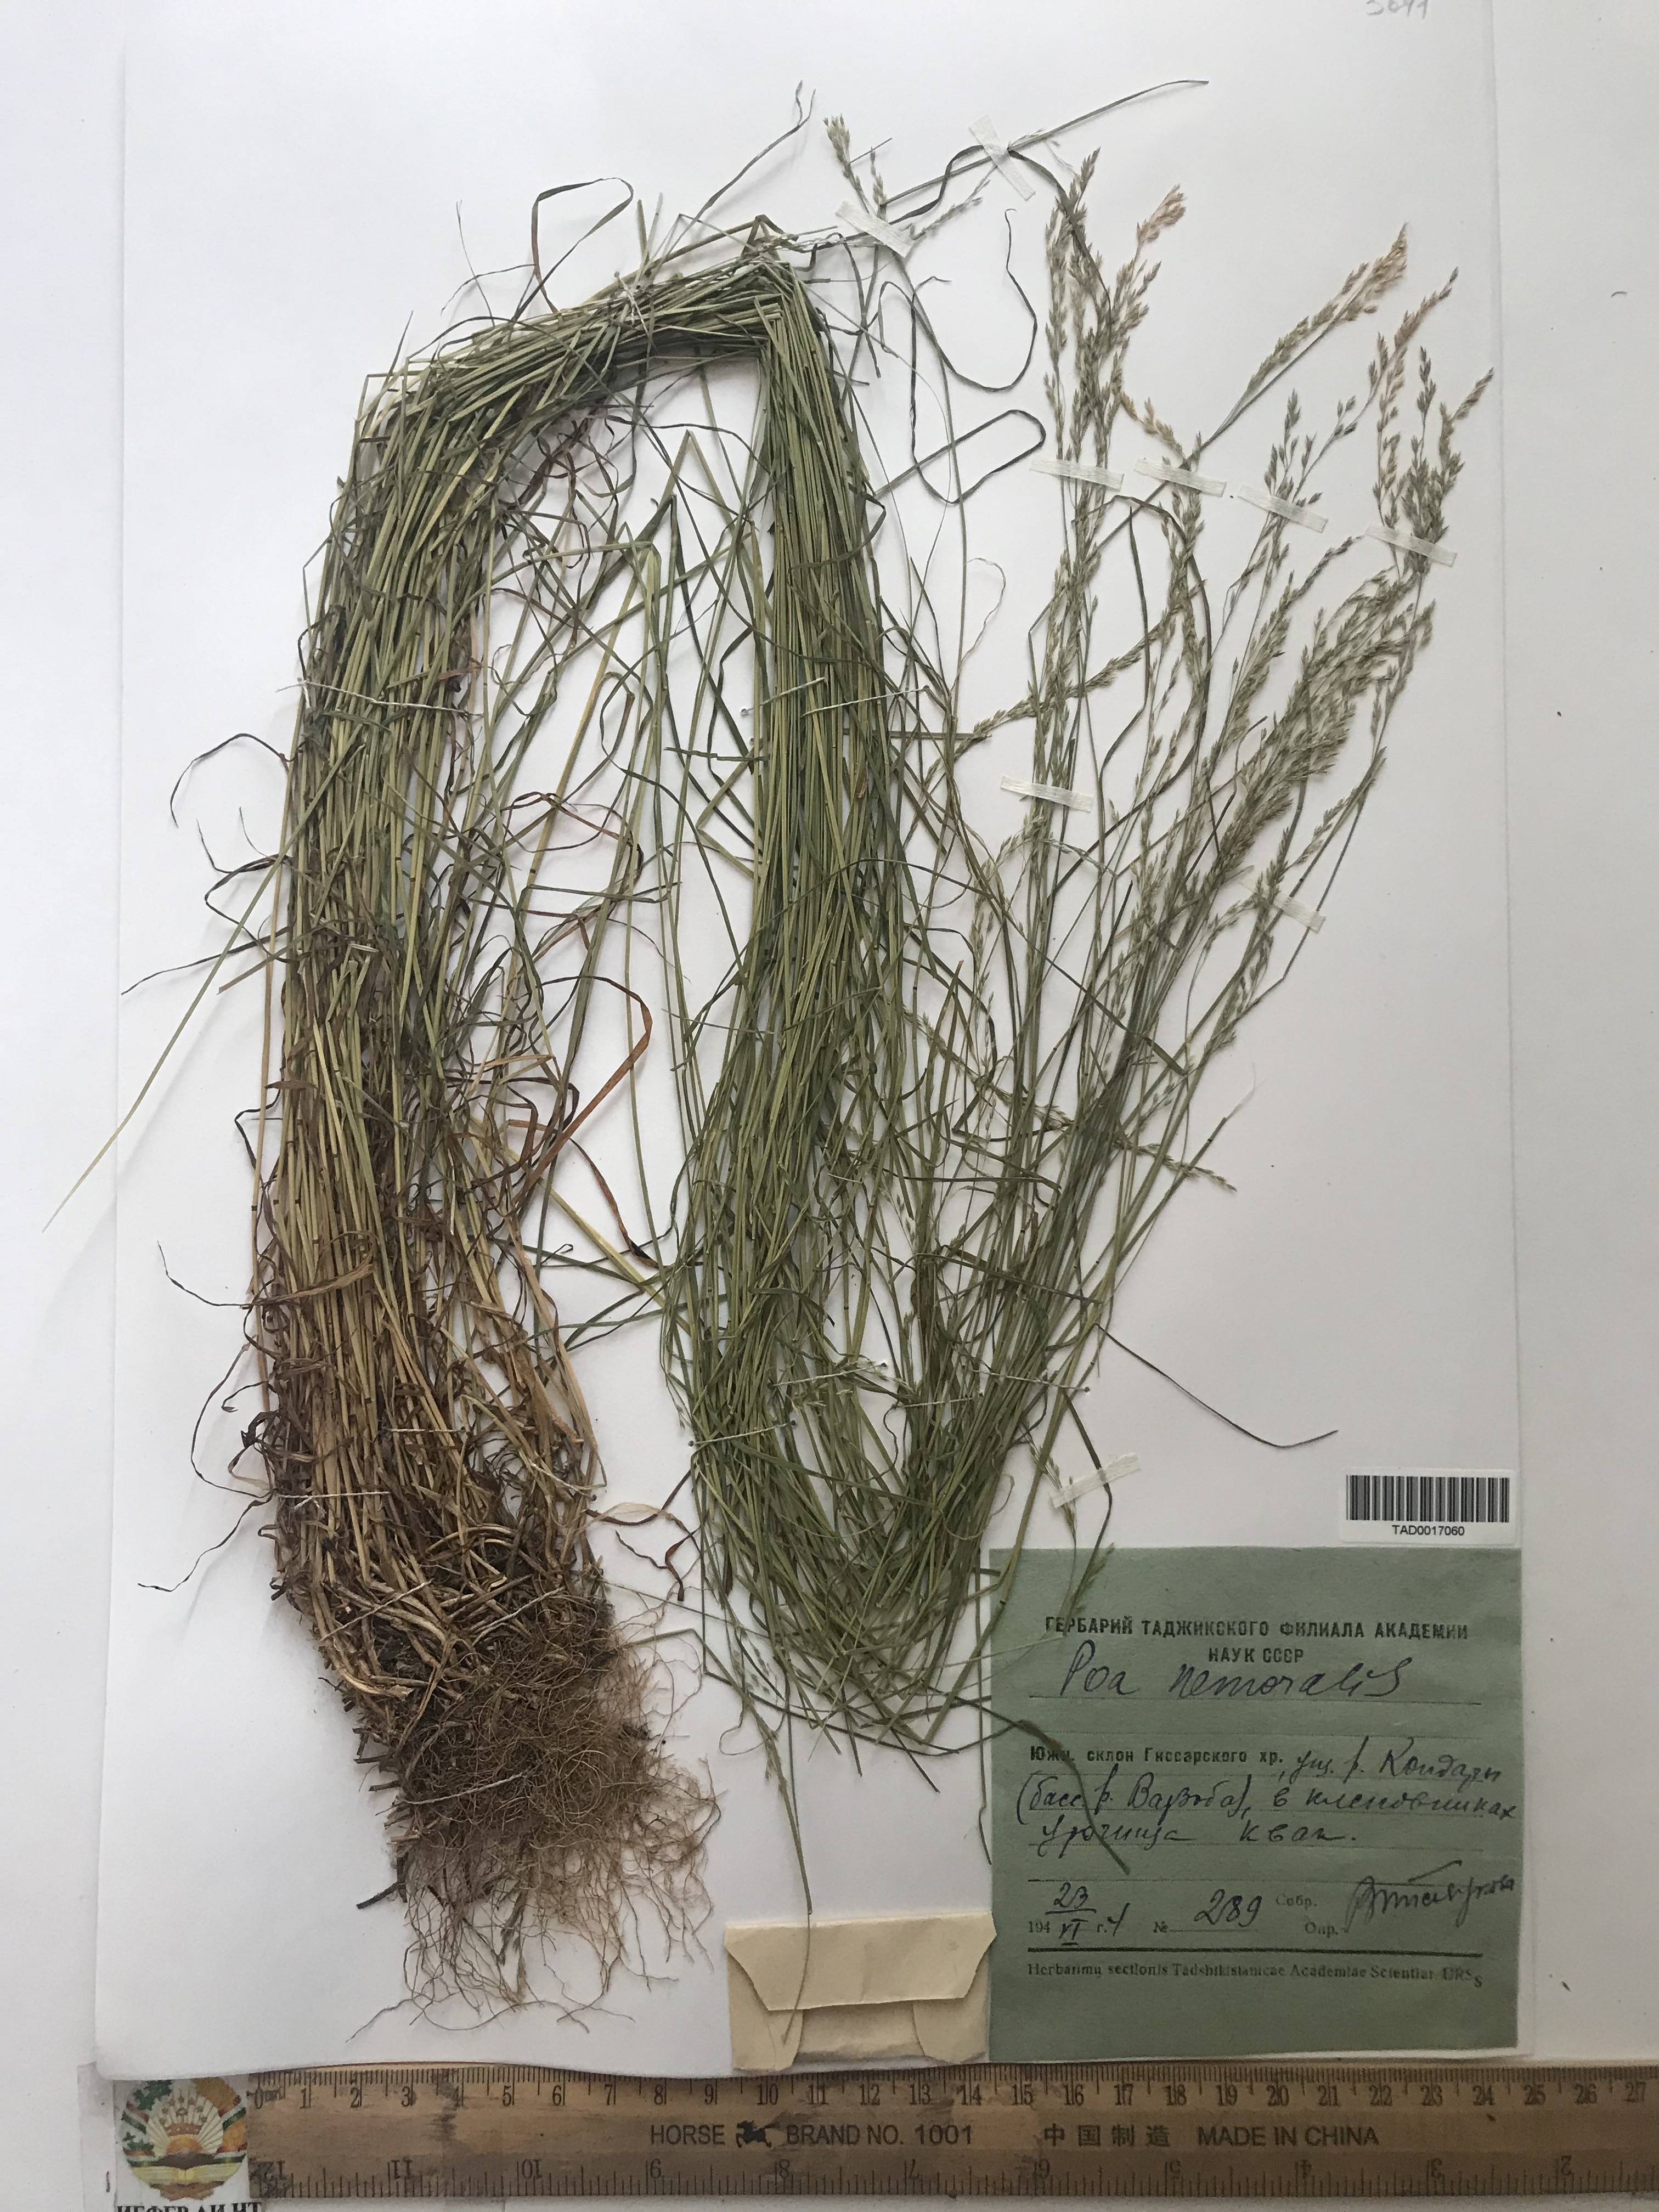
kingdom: Plantae
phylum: Tracheophyta
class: Liliopsida
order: Poales
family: Poaceae
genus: Poa
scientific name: Poa nemoralis
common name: Wood bluegrass
